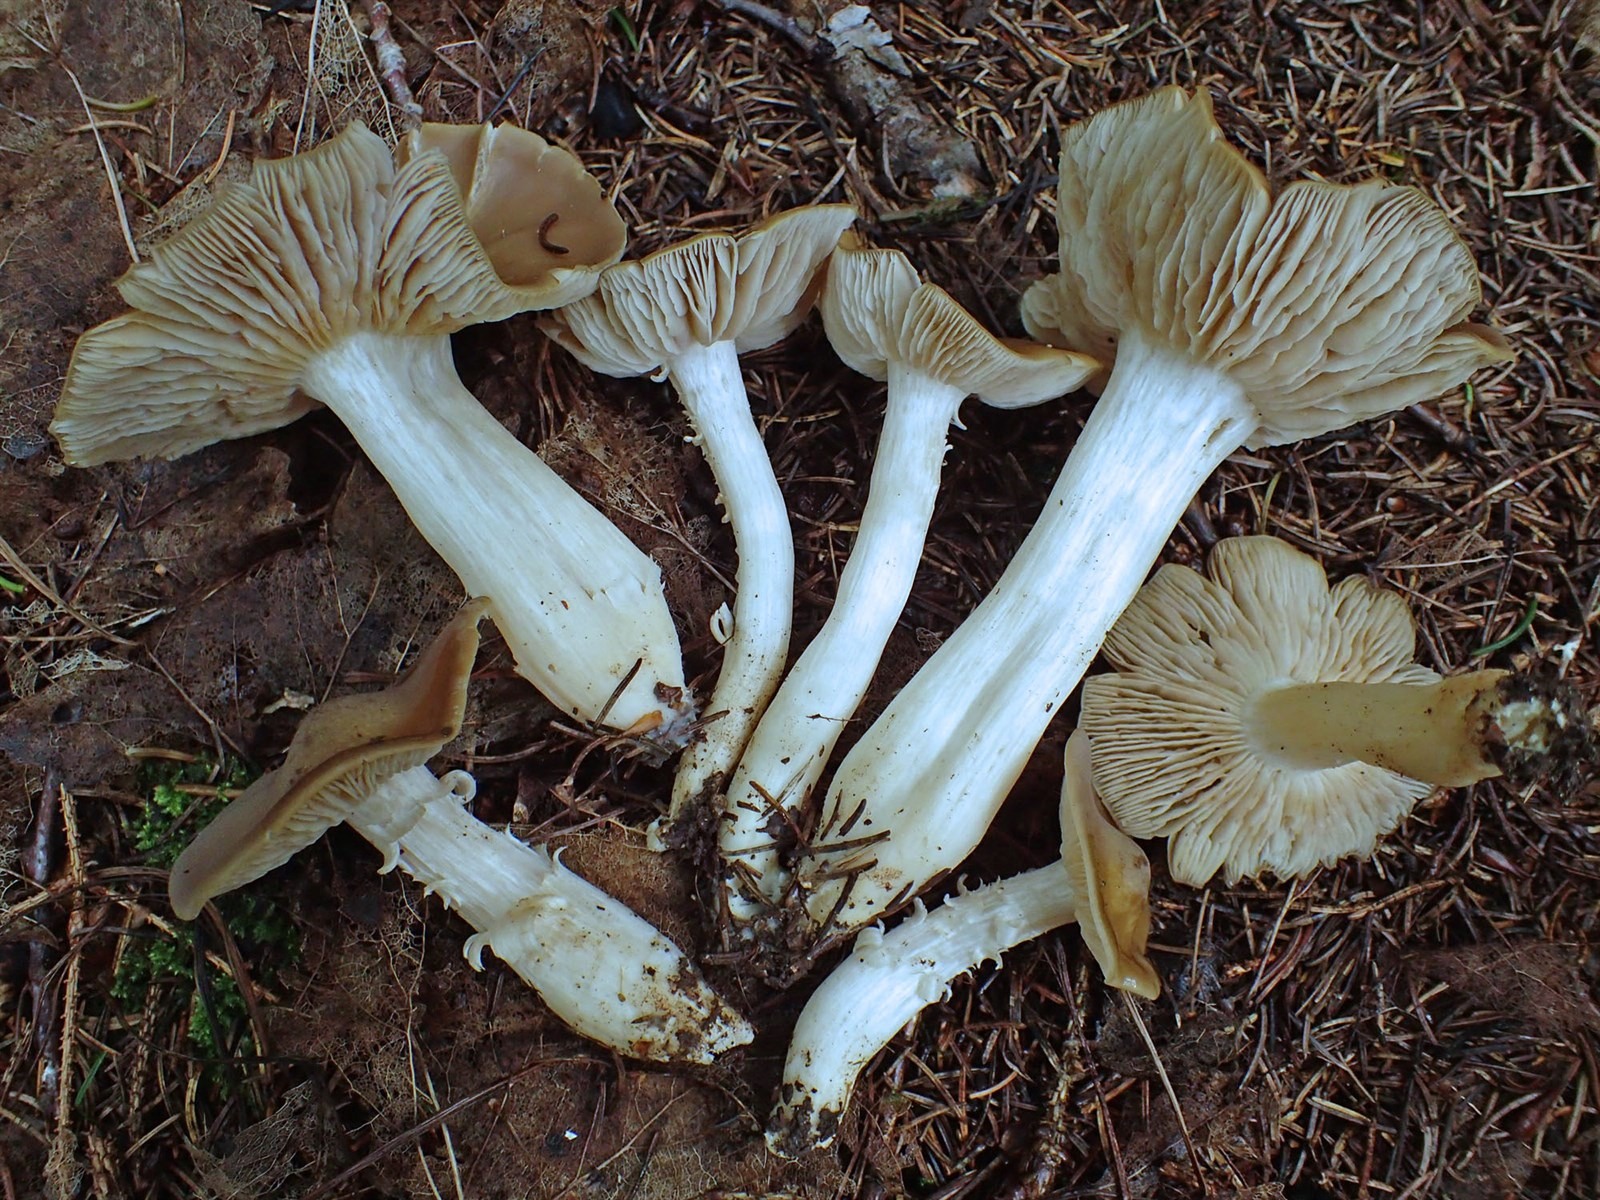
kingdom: Fungi
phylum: Basidiomycota
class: Agaricomycetes
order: Agaricales
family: Entolomataceae
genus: Entoloma
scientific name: Entoloma majaloides
